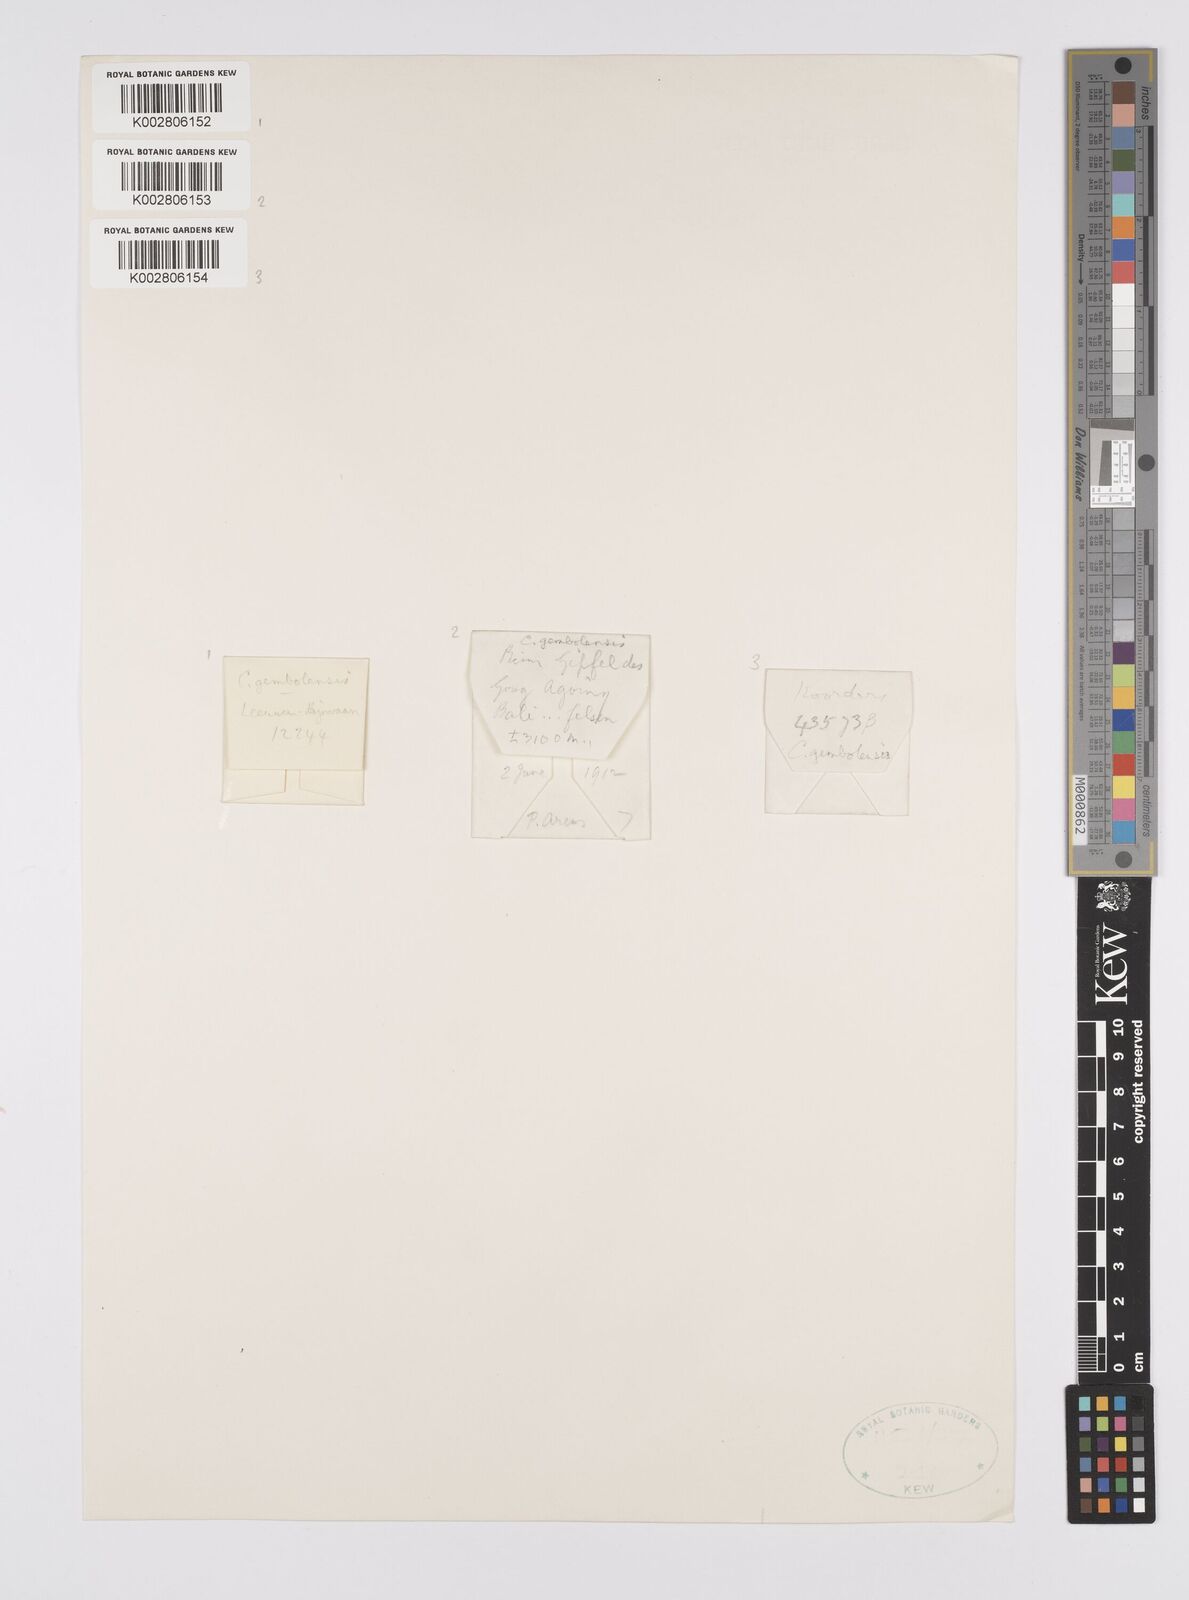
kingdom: Plantae
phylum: Tracheophyta
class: Liliopsida
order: Poales
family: Cyperaceae
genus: Carex
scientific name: Carex vesiculosa
